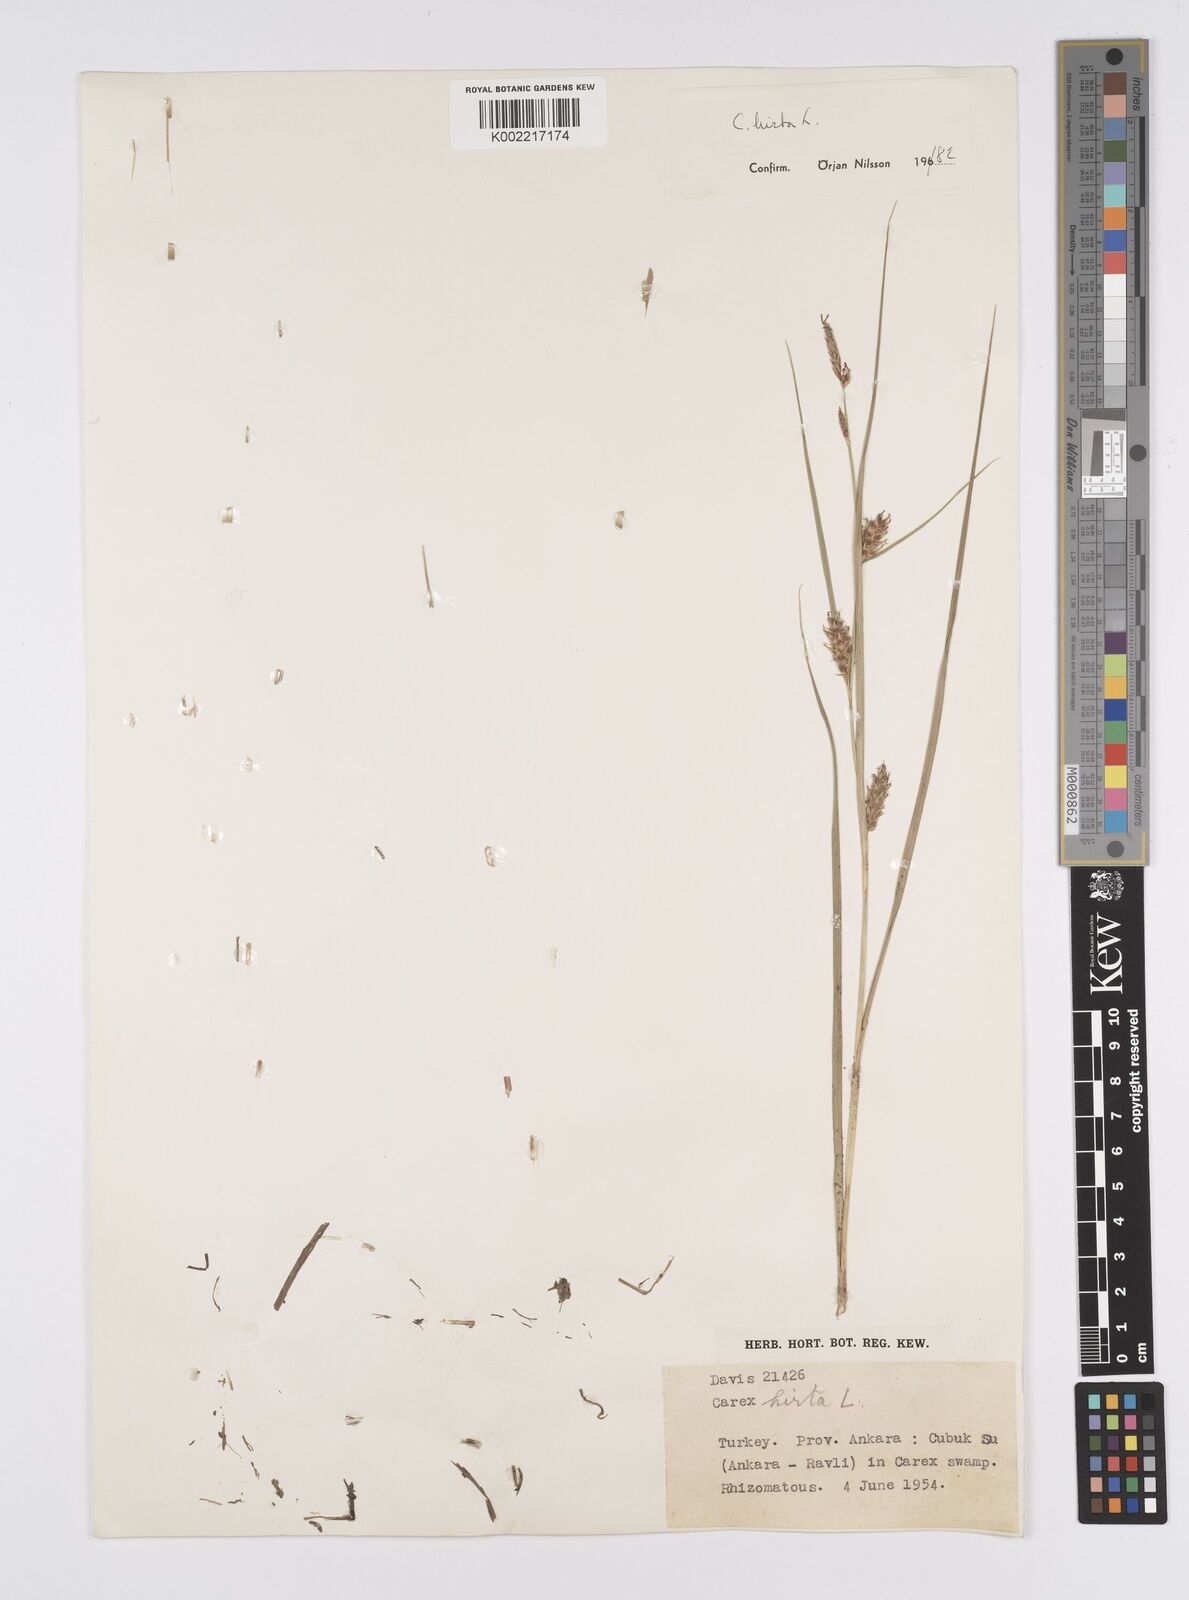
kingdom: Plantae
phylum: Tracheophyta
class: Liliopsida
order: Poales
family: Cyperaceae
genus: Carex
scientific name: Carex hirta
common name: Hairy sedge
